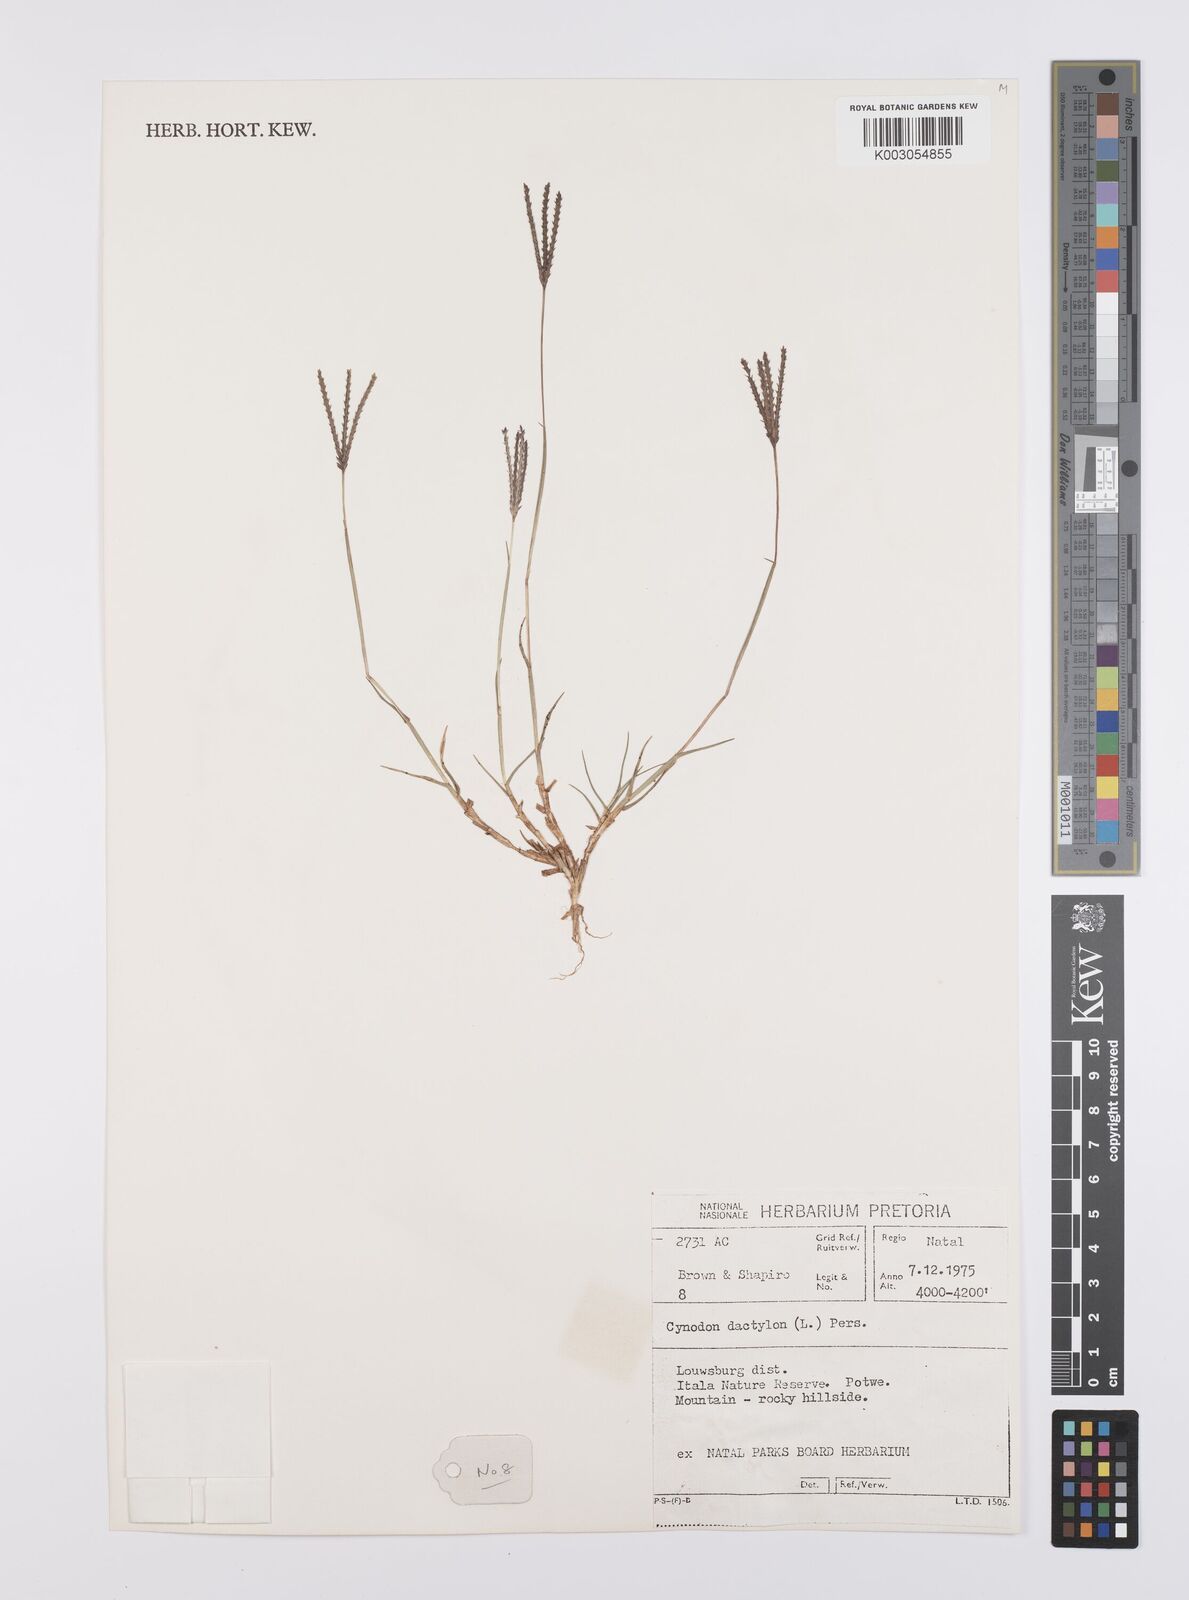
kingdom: Plantae
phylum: Tracheophyta
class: Liliopsida
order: Poales
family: Poaceae
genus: Cynodon
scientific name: Cynodon dactylon
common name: Bermuda grass
